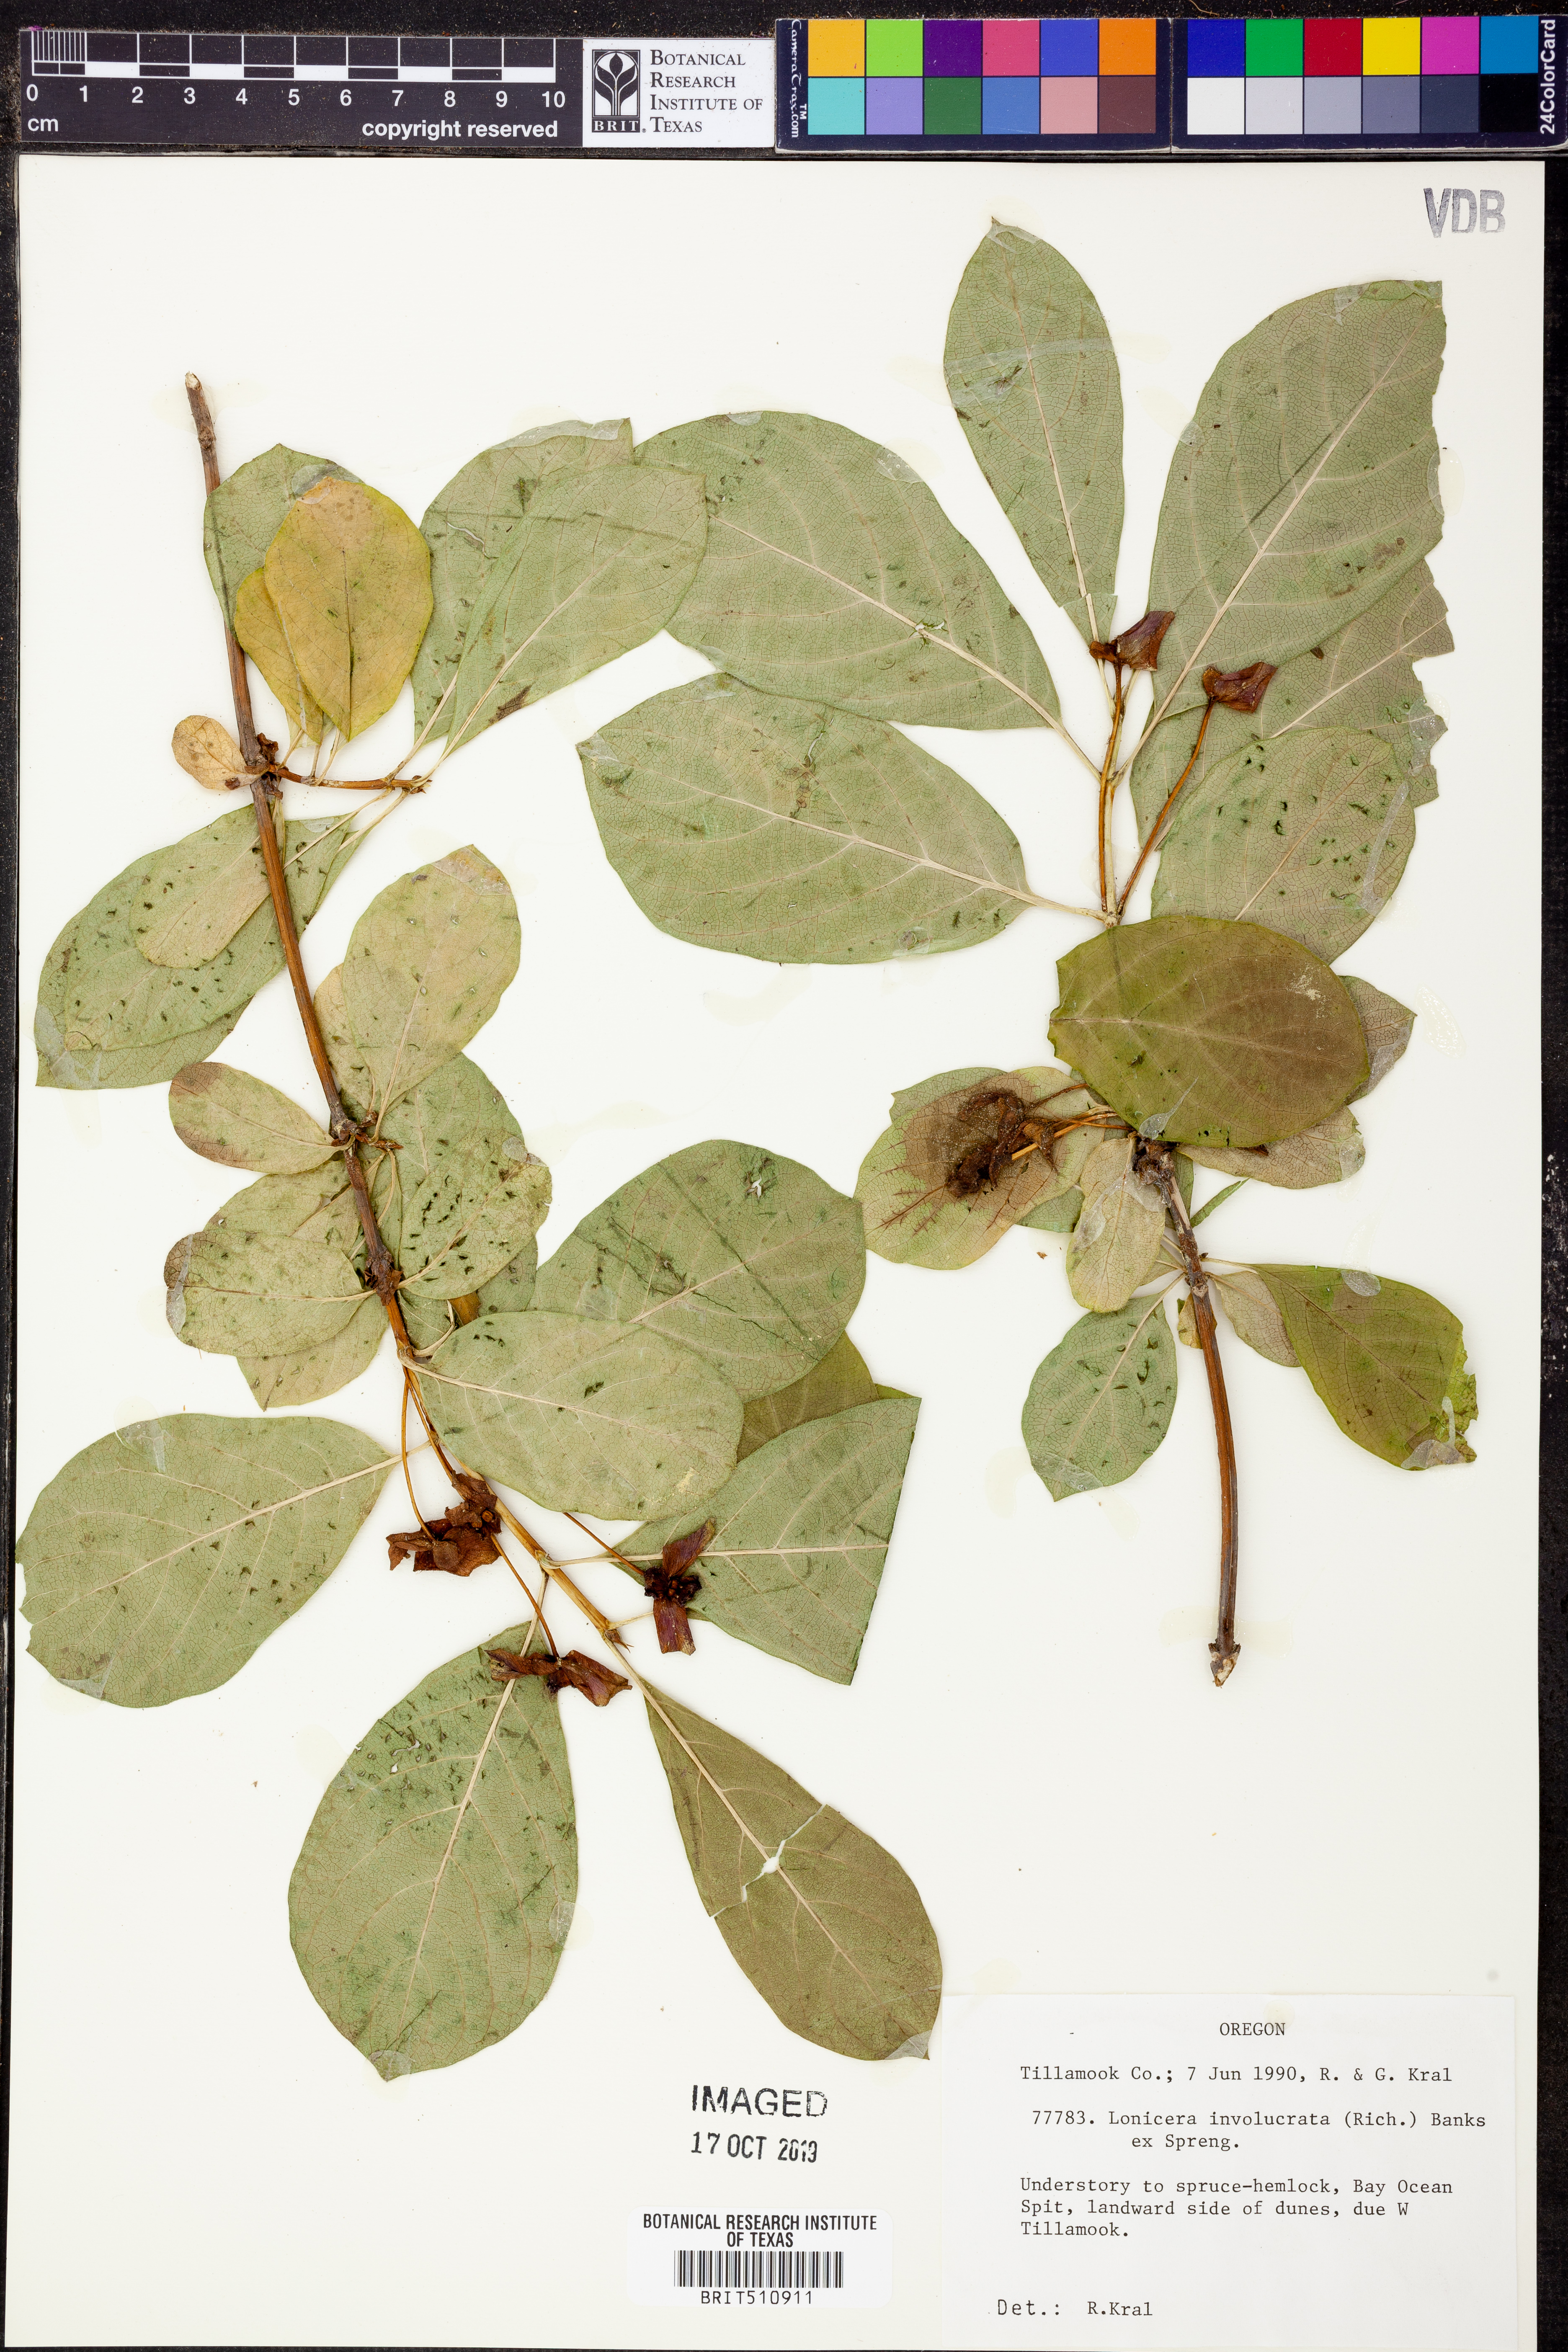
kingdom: Plantae
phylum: Tracheophyta
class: Magnoliopsida
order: Dipsacales
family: Caprifoliaceae
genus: Lonicera
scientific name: Lonicera involucrata
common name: Californian honeysuckle
